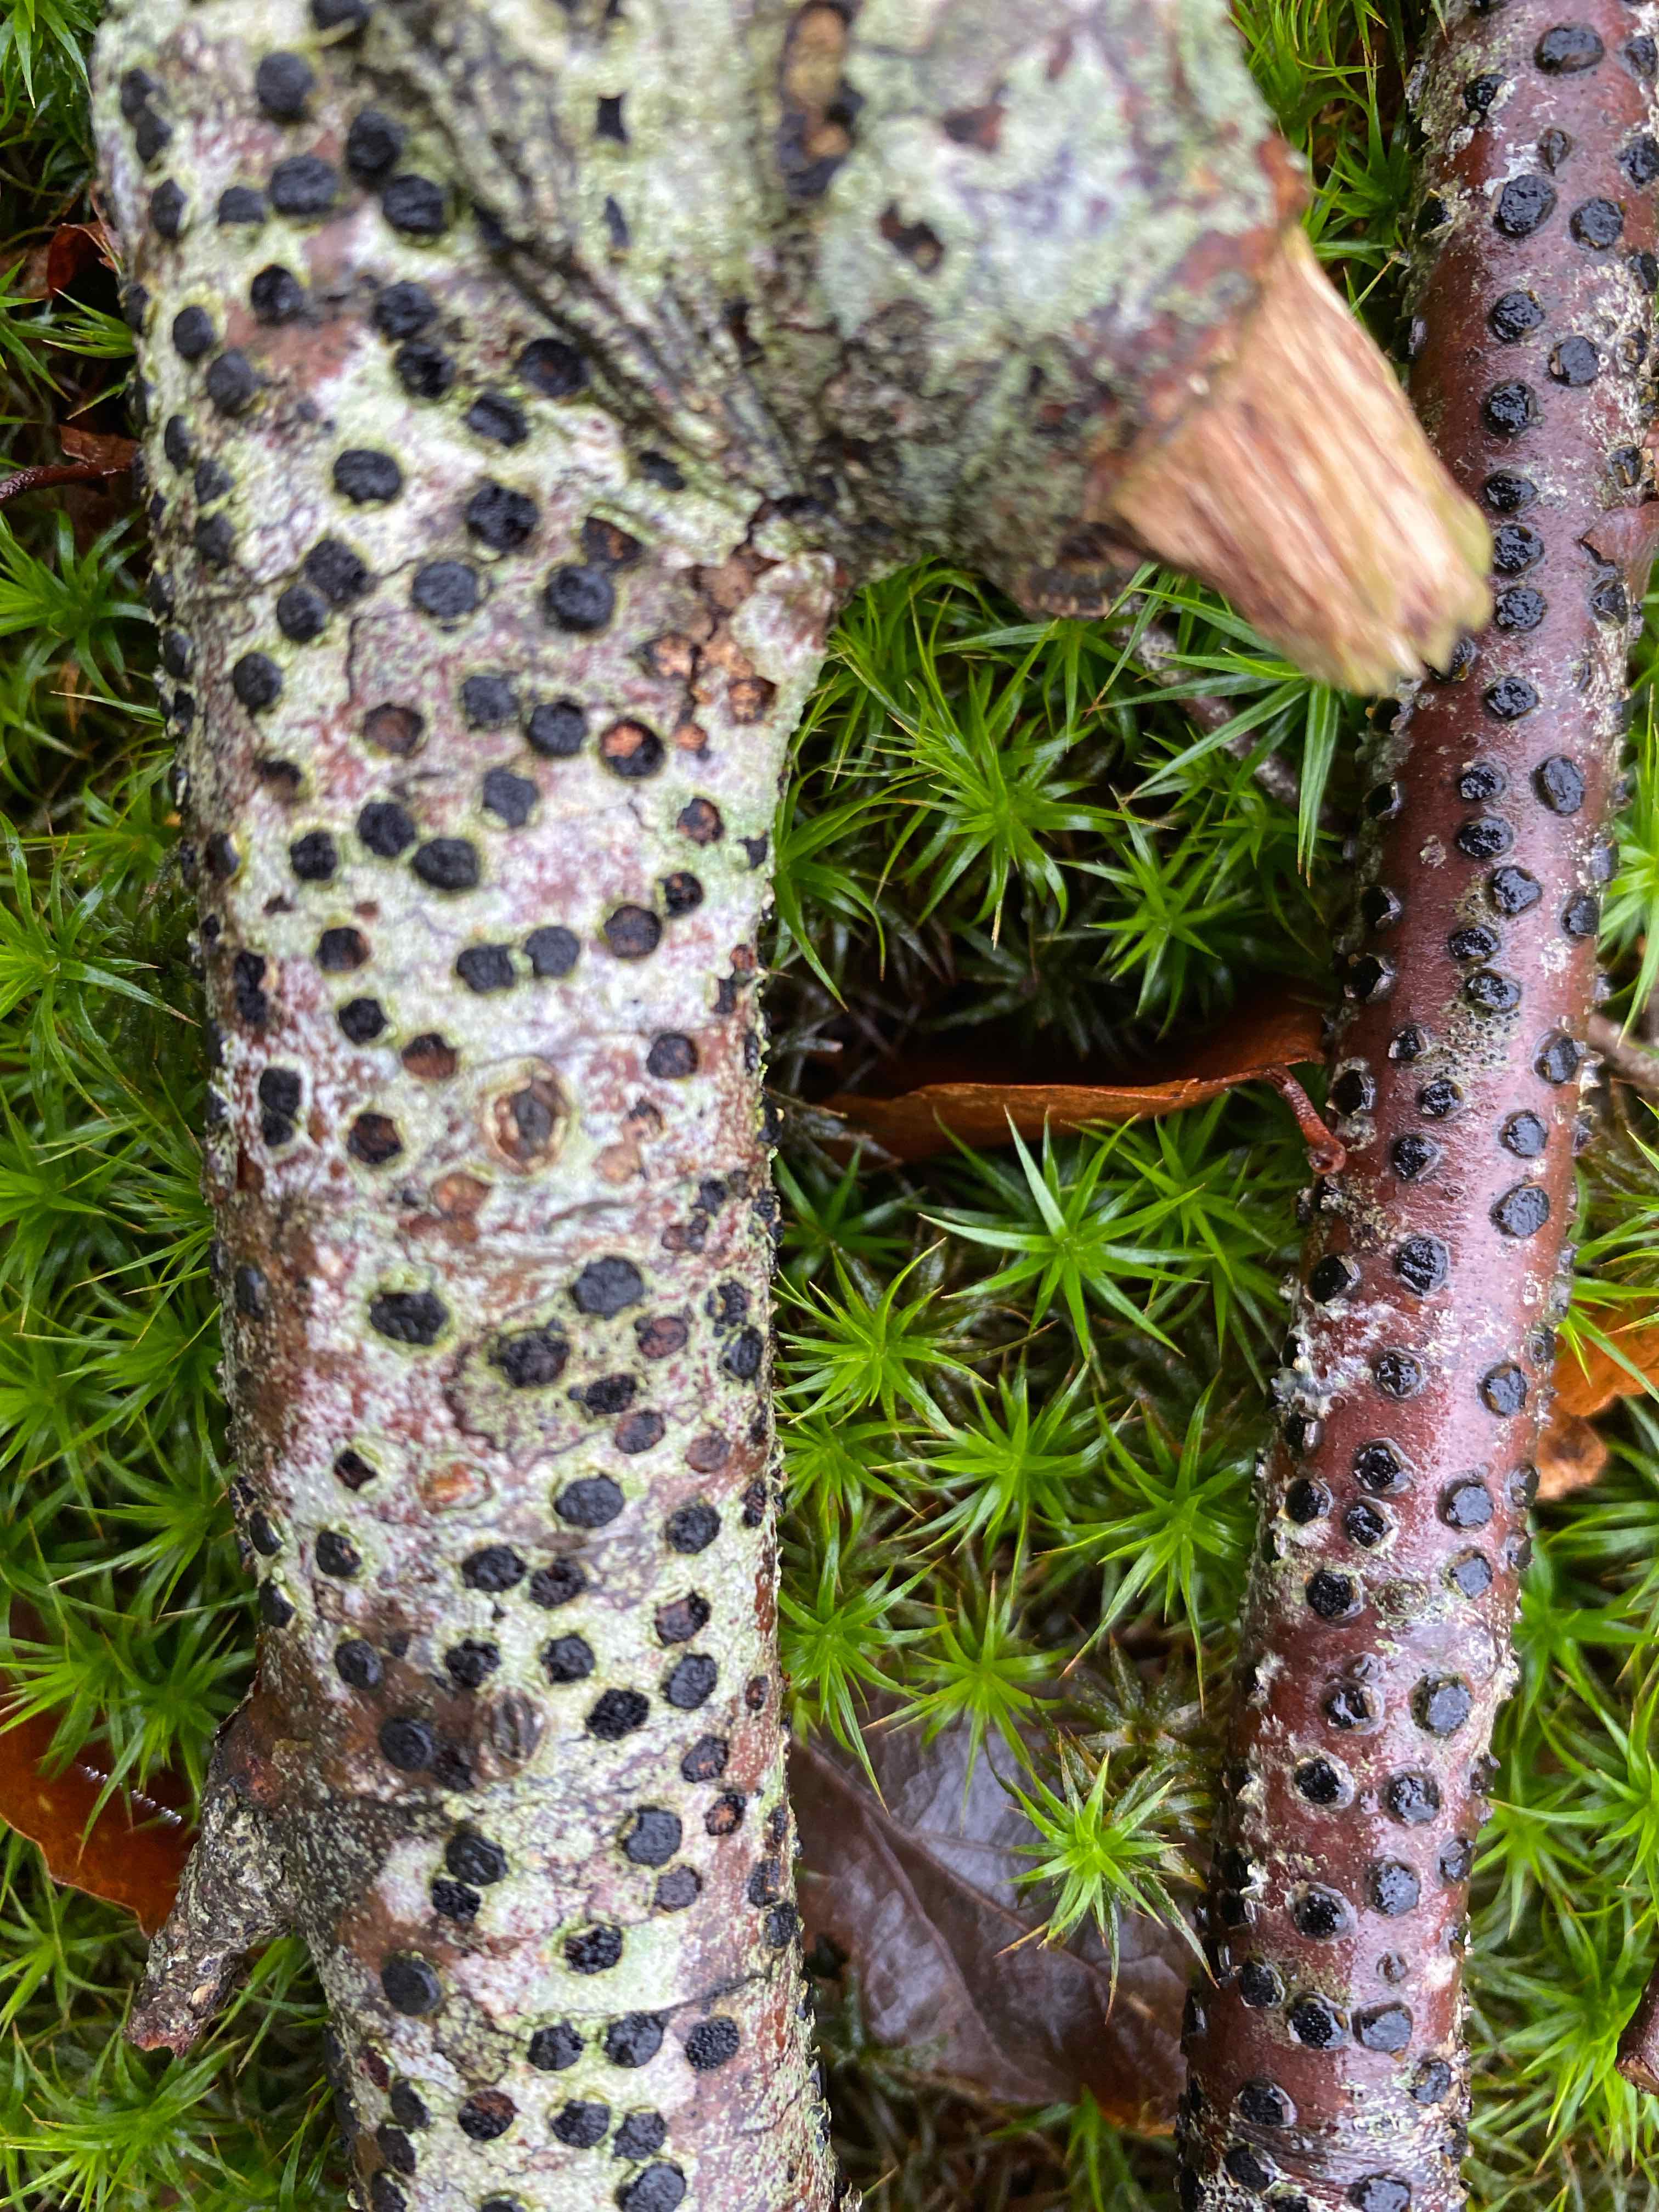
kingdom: Fungi
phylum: Ascomycota
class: Sordariomycetes
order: Xylariales
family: Diatrypaceae
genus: Diatrype
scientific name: Diatrype disciformis
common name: kant-kulskorpe
